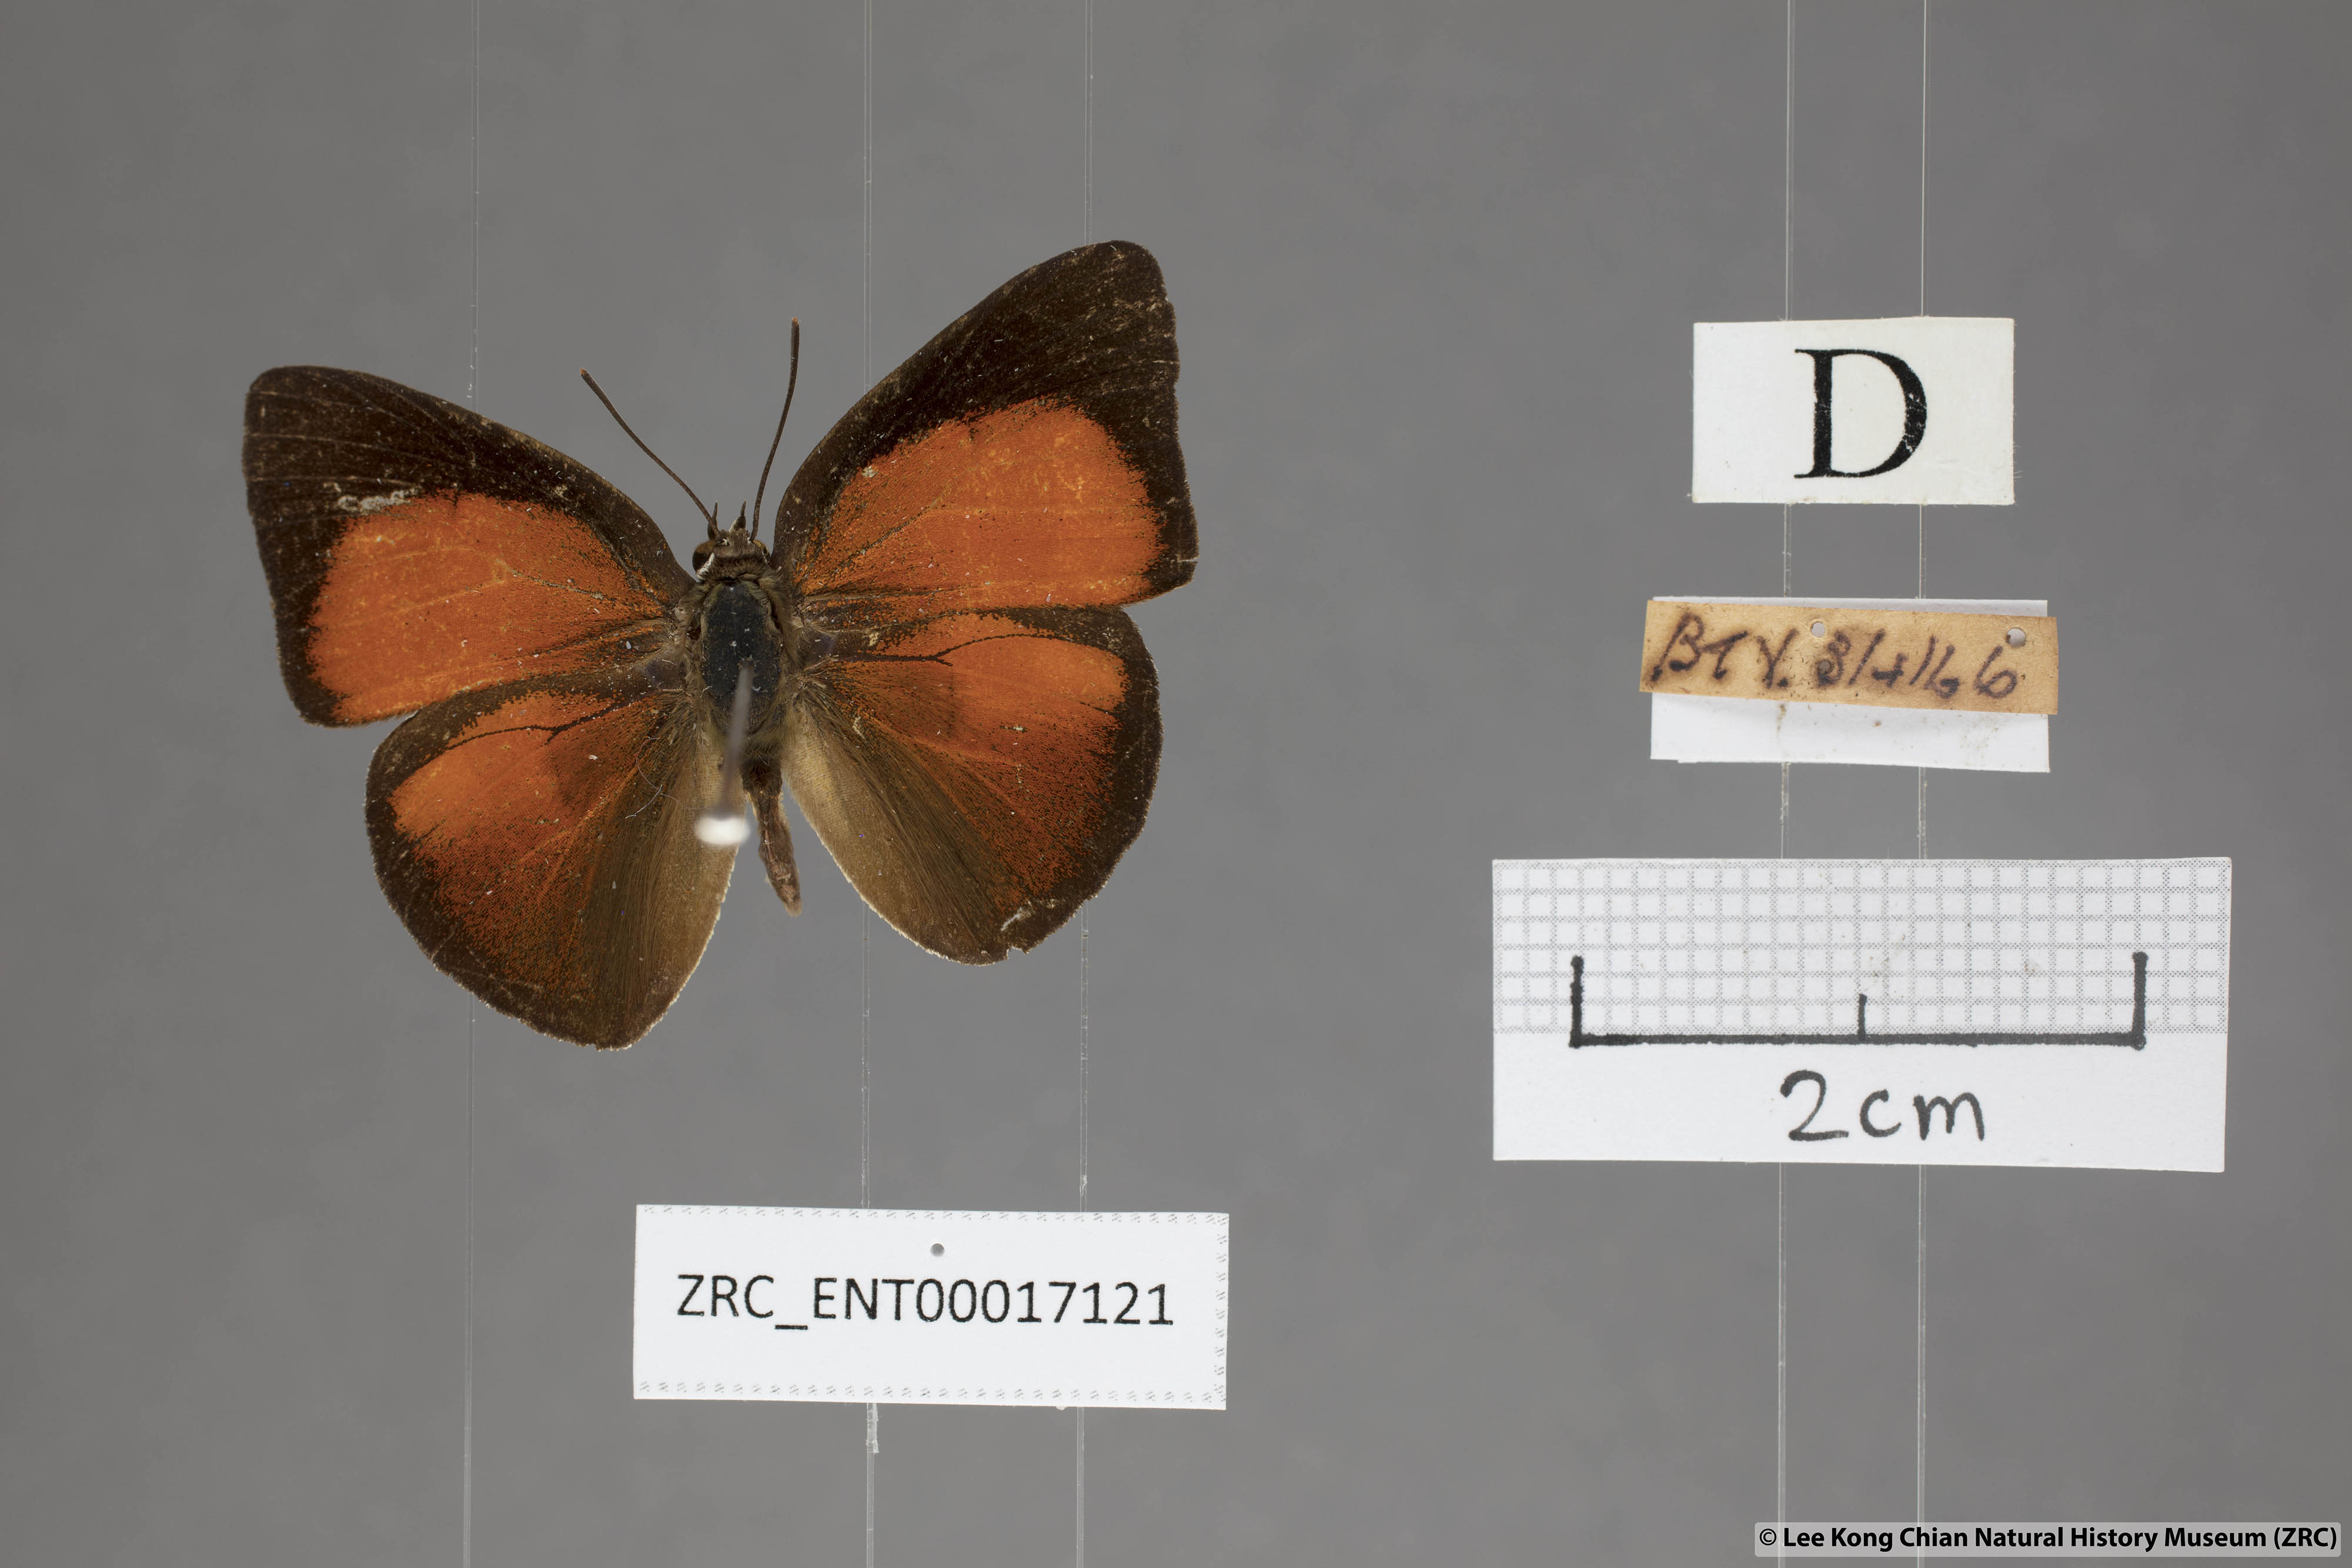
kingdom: Animalia
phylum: Arthropoda
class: Insecta
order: Lepidoptera
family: Lycaenidae
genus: Curetis
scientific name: Curetis freda
